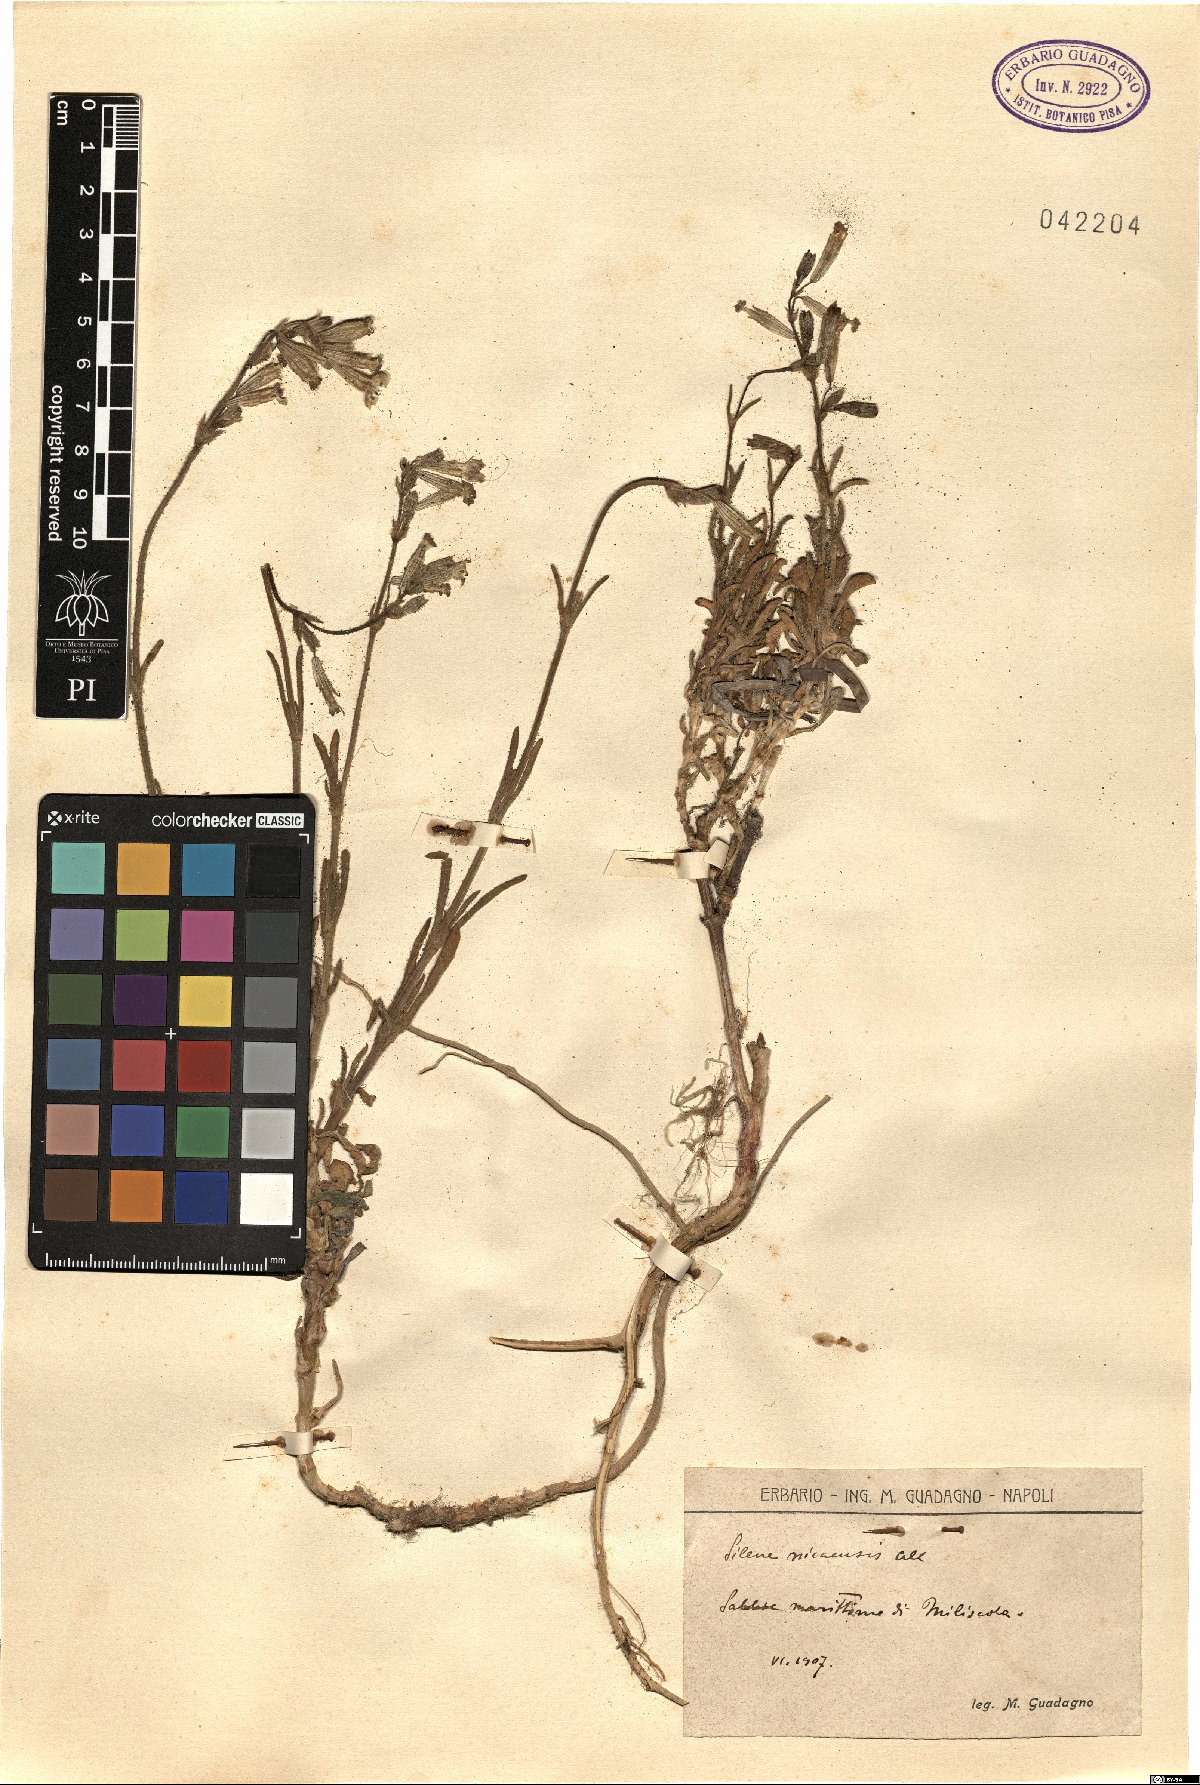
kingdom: Plantae
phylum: Tracheophyta
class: Magnoliopsida
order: Caryophyllales
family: Caryophyllaceae
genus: Silene
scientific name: Silene nicaeensis
